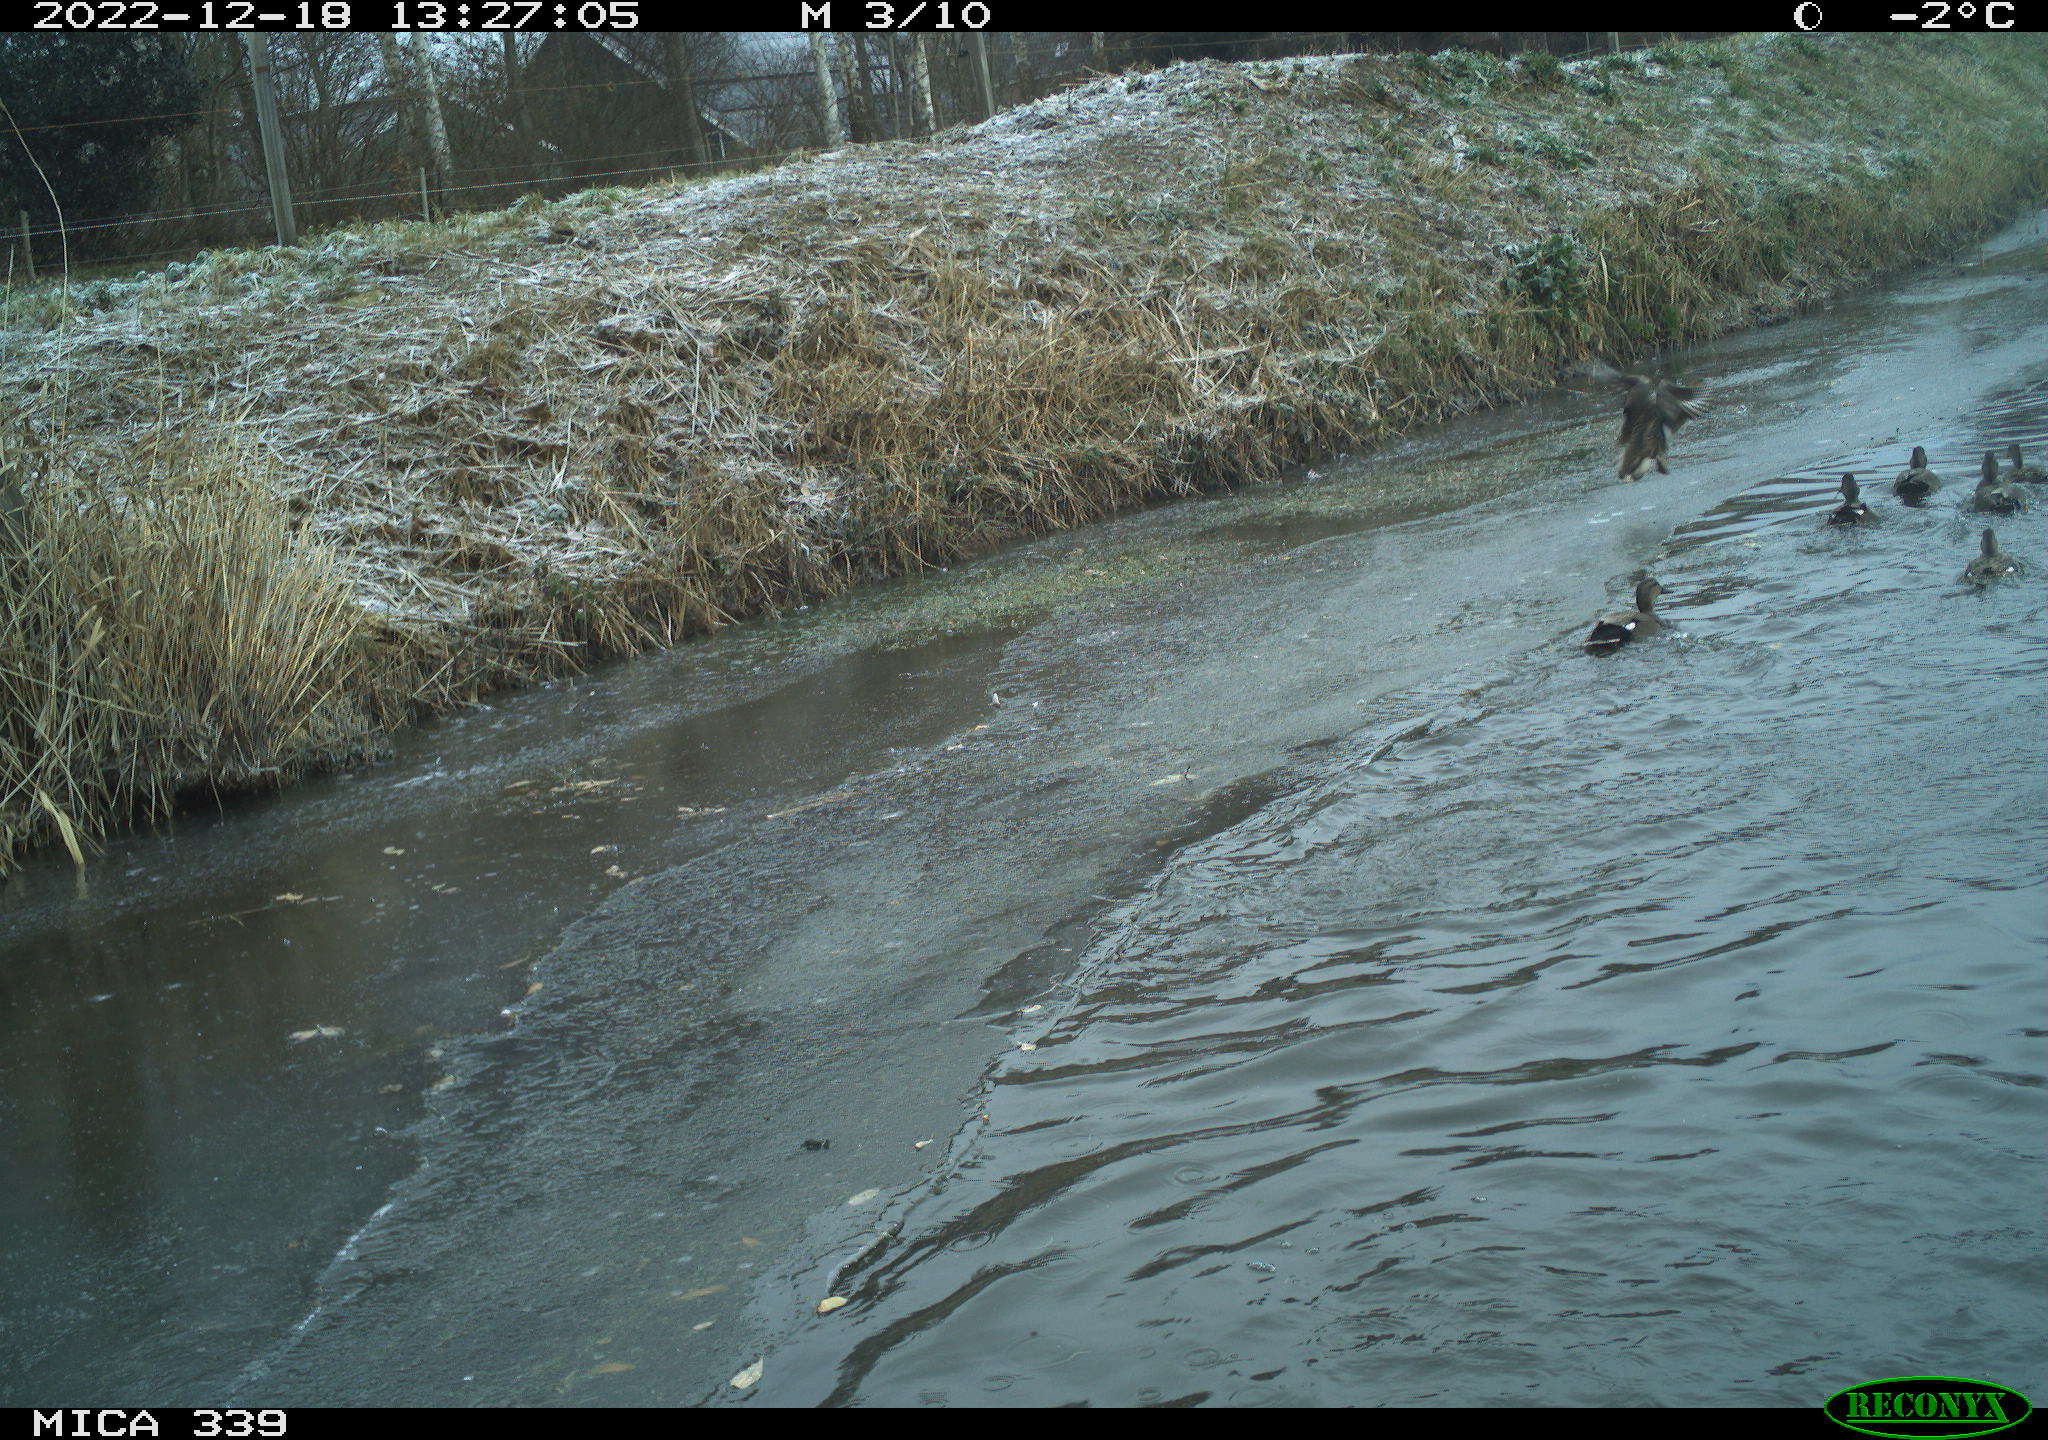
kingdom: Animalia
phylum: Chordata
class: Aves
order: Anseriformes
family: Anatidae
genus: Anas
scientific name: Anas
